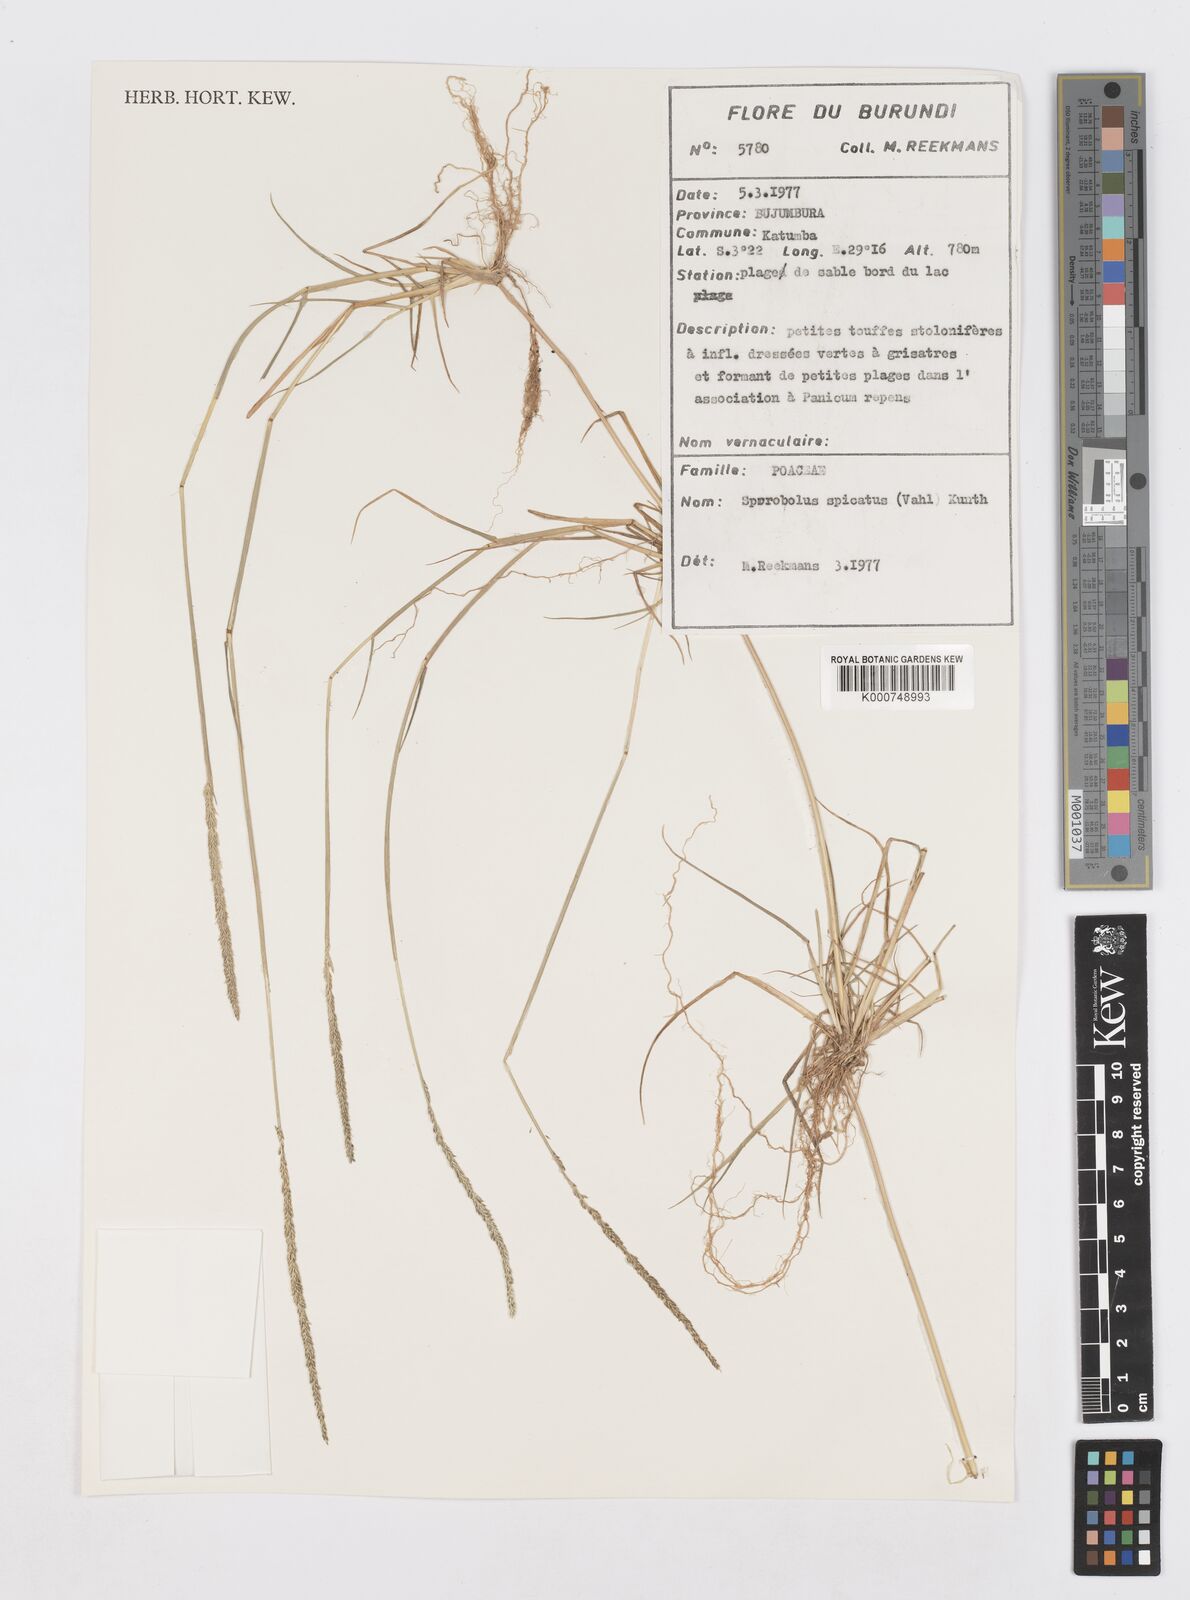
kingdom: Plantae
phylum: Tracheophyta
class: Liliopsida
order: Poales
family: Poaceae
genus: Sporobolus
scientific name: Sporobolus spicatus
